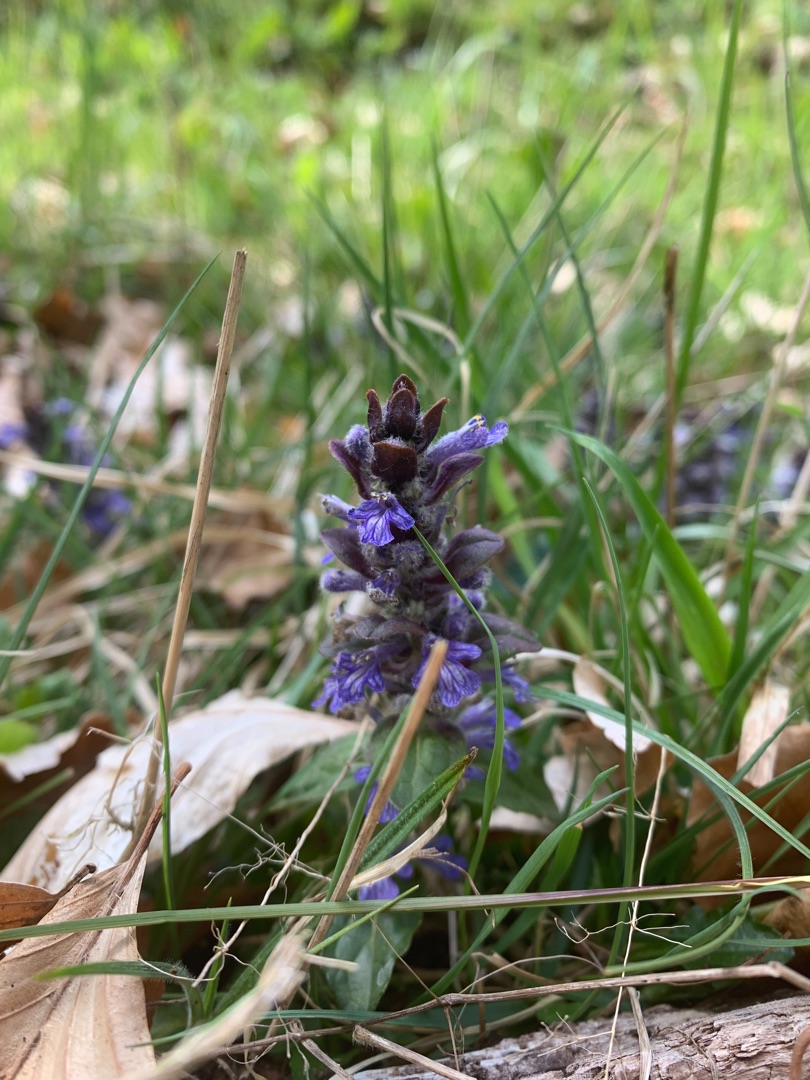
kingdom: Plantae
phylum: Tracheophyta
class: Magnoliopsida
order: Lamiales
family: Lamiaceae
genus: Ajuga
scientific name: Ajuga reptans
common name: Krybende læbeløs
